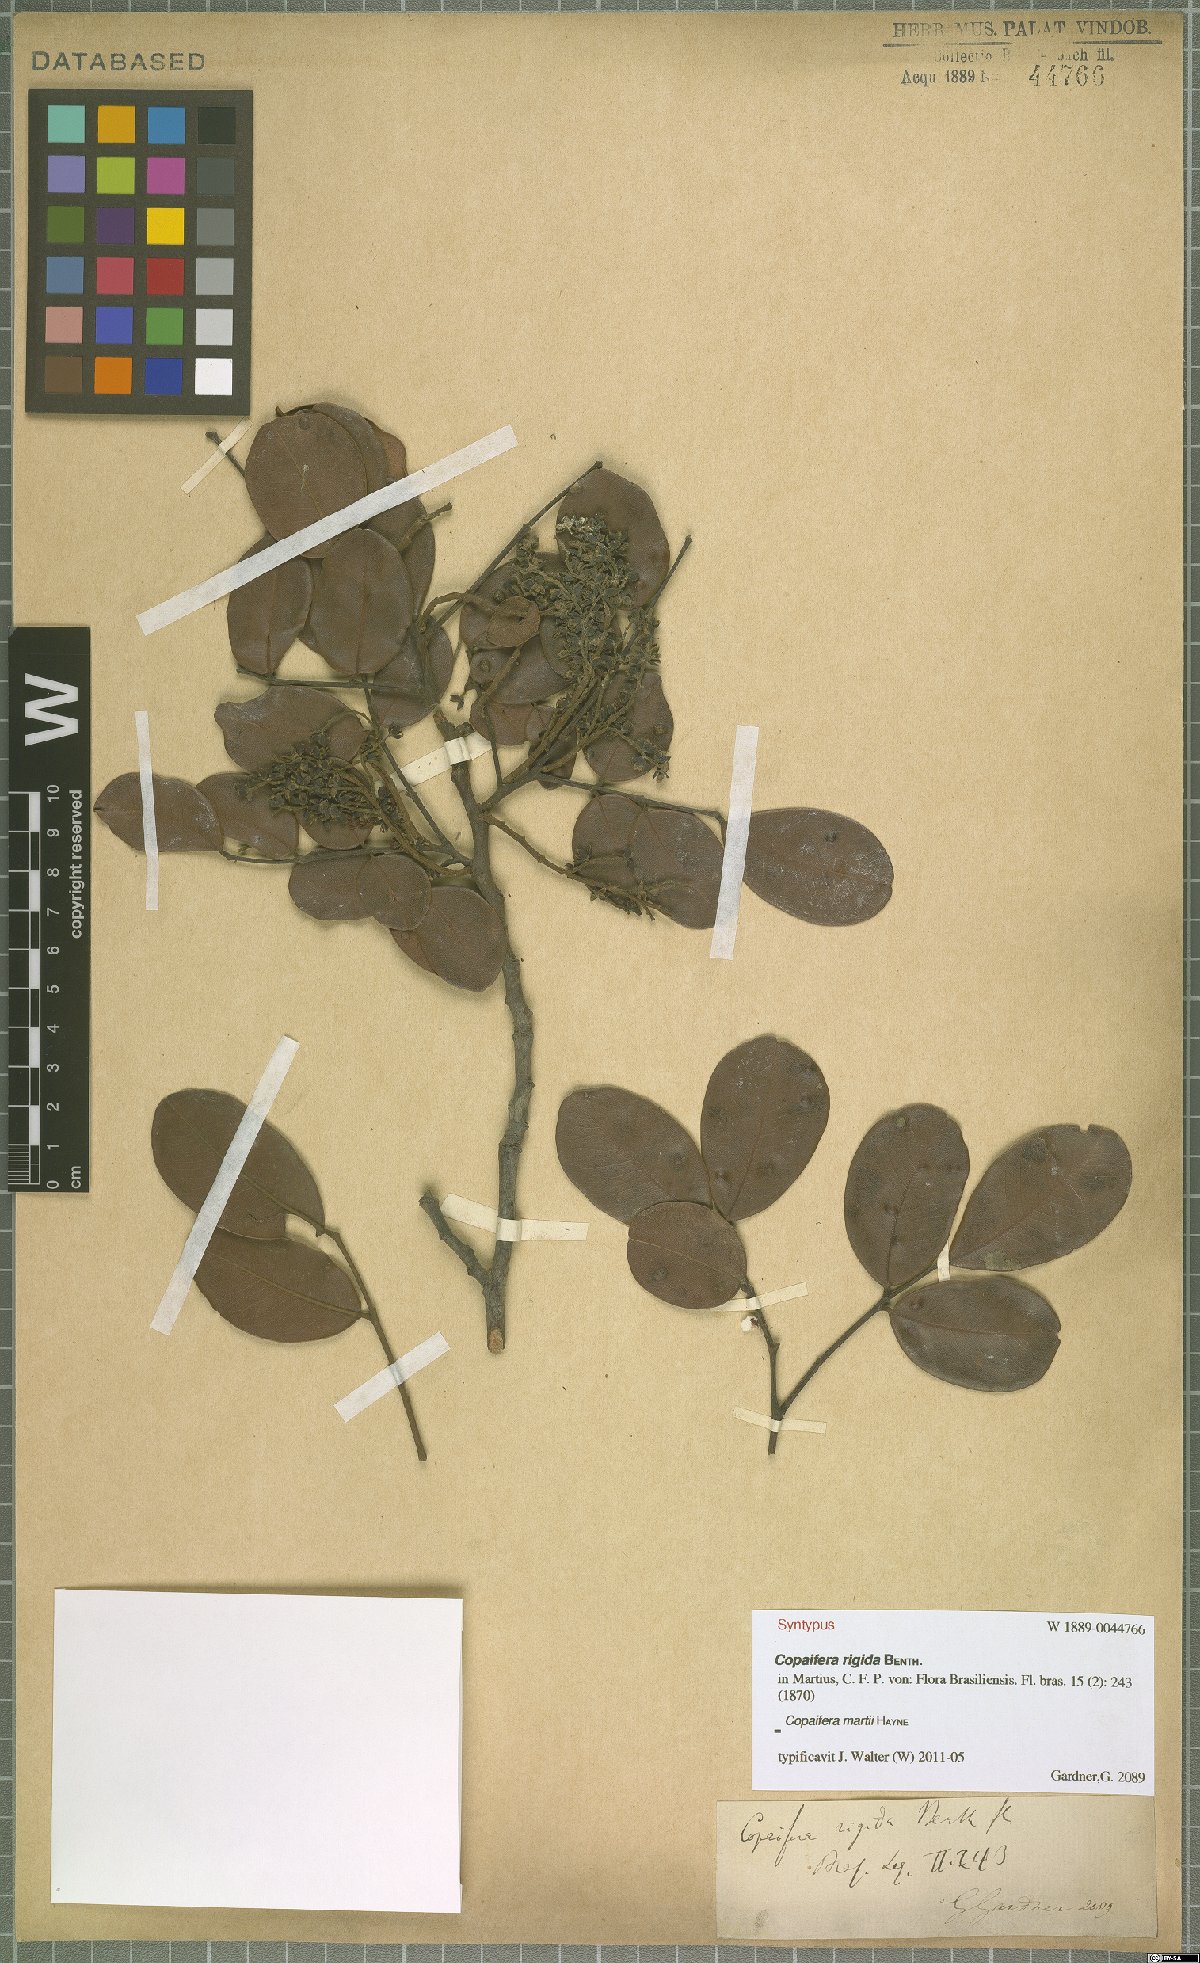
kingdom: Plantae
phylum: Tracheophyta
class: Magnoliopsida
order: Fabales
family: Fabaceae
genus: Copaifera
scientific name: Copaifera martii
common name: Copaiba
